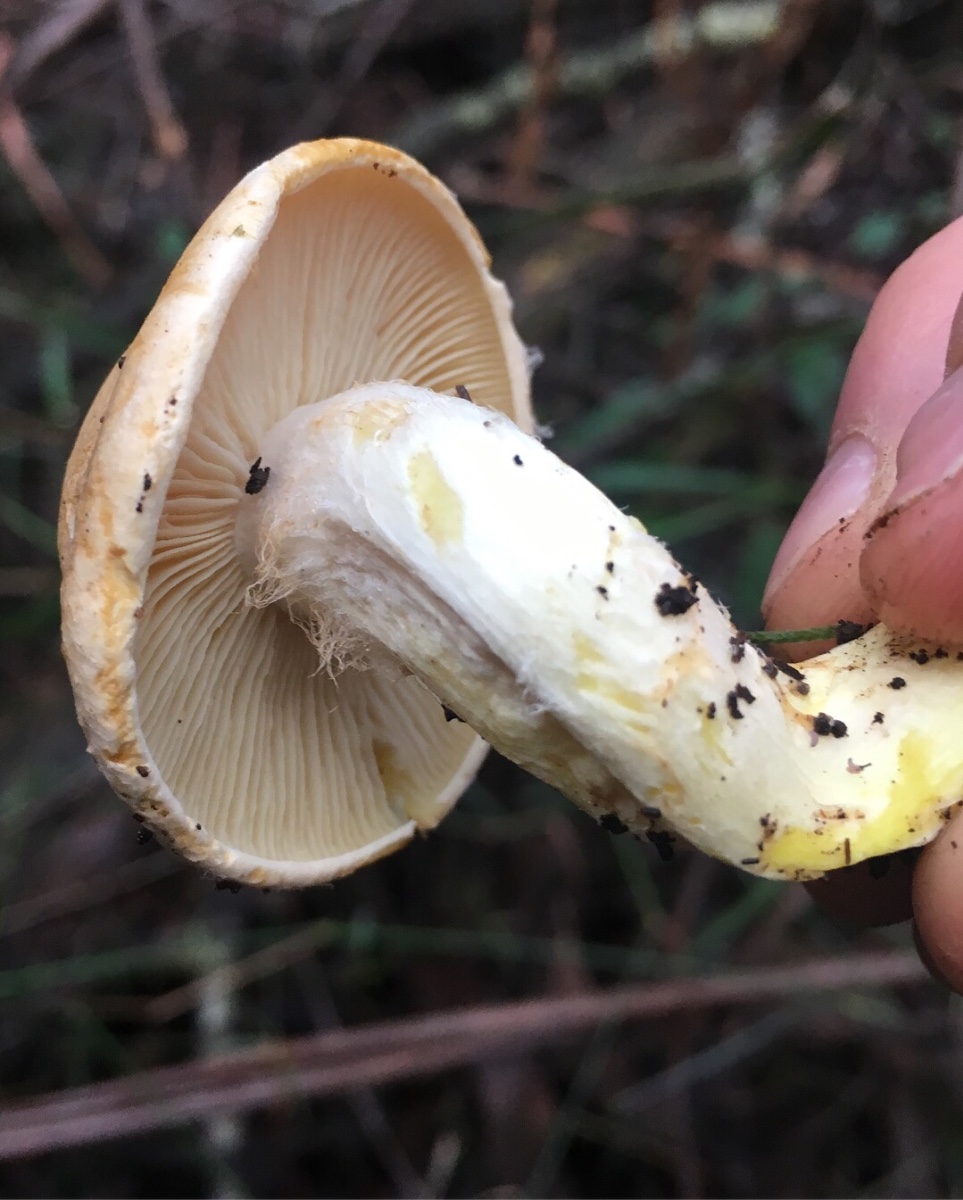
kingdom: Fungi
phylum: Basidiomycota
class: Agaricomycetes
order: Agaricales
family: Cortinariaceae
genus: Phlegmacium
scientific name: Phlegmacium memoria-annae
